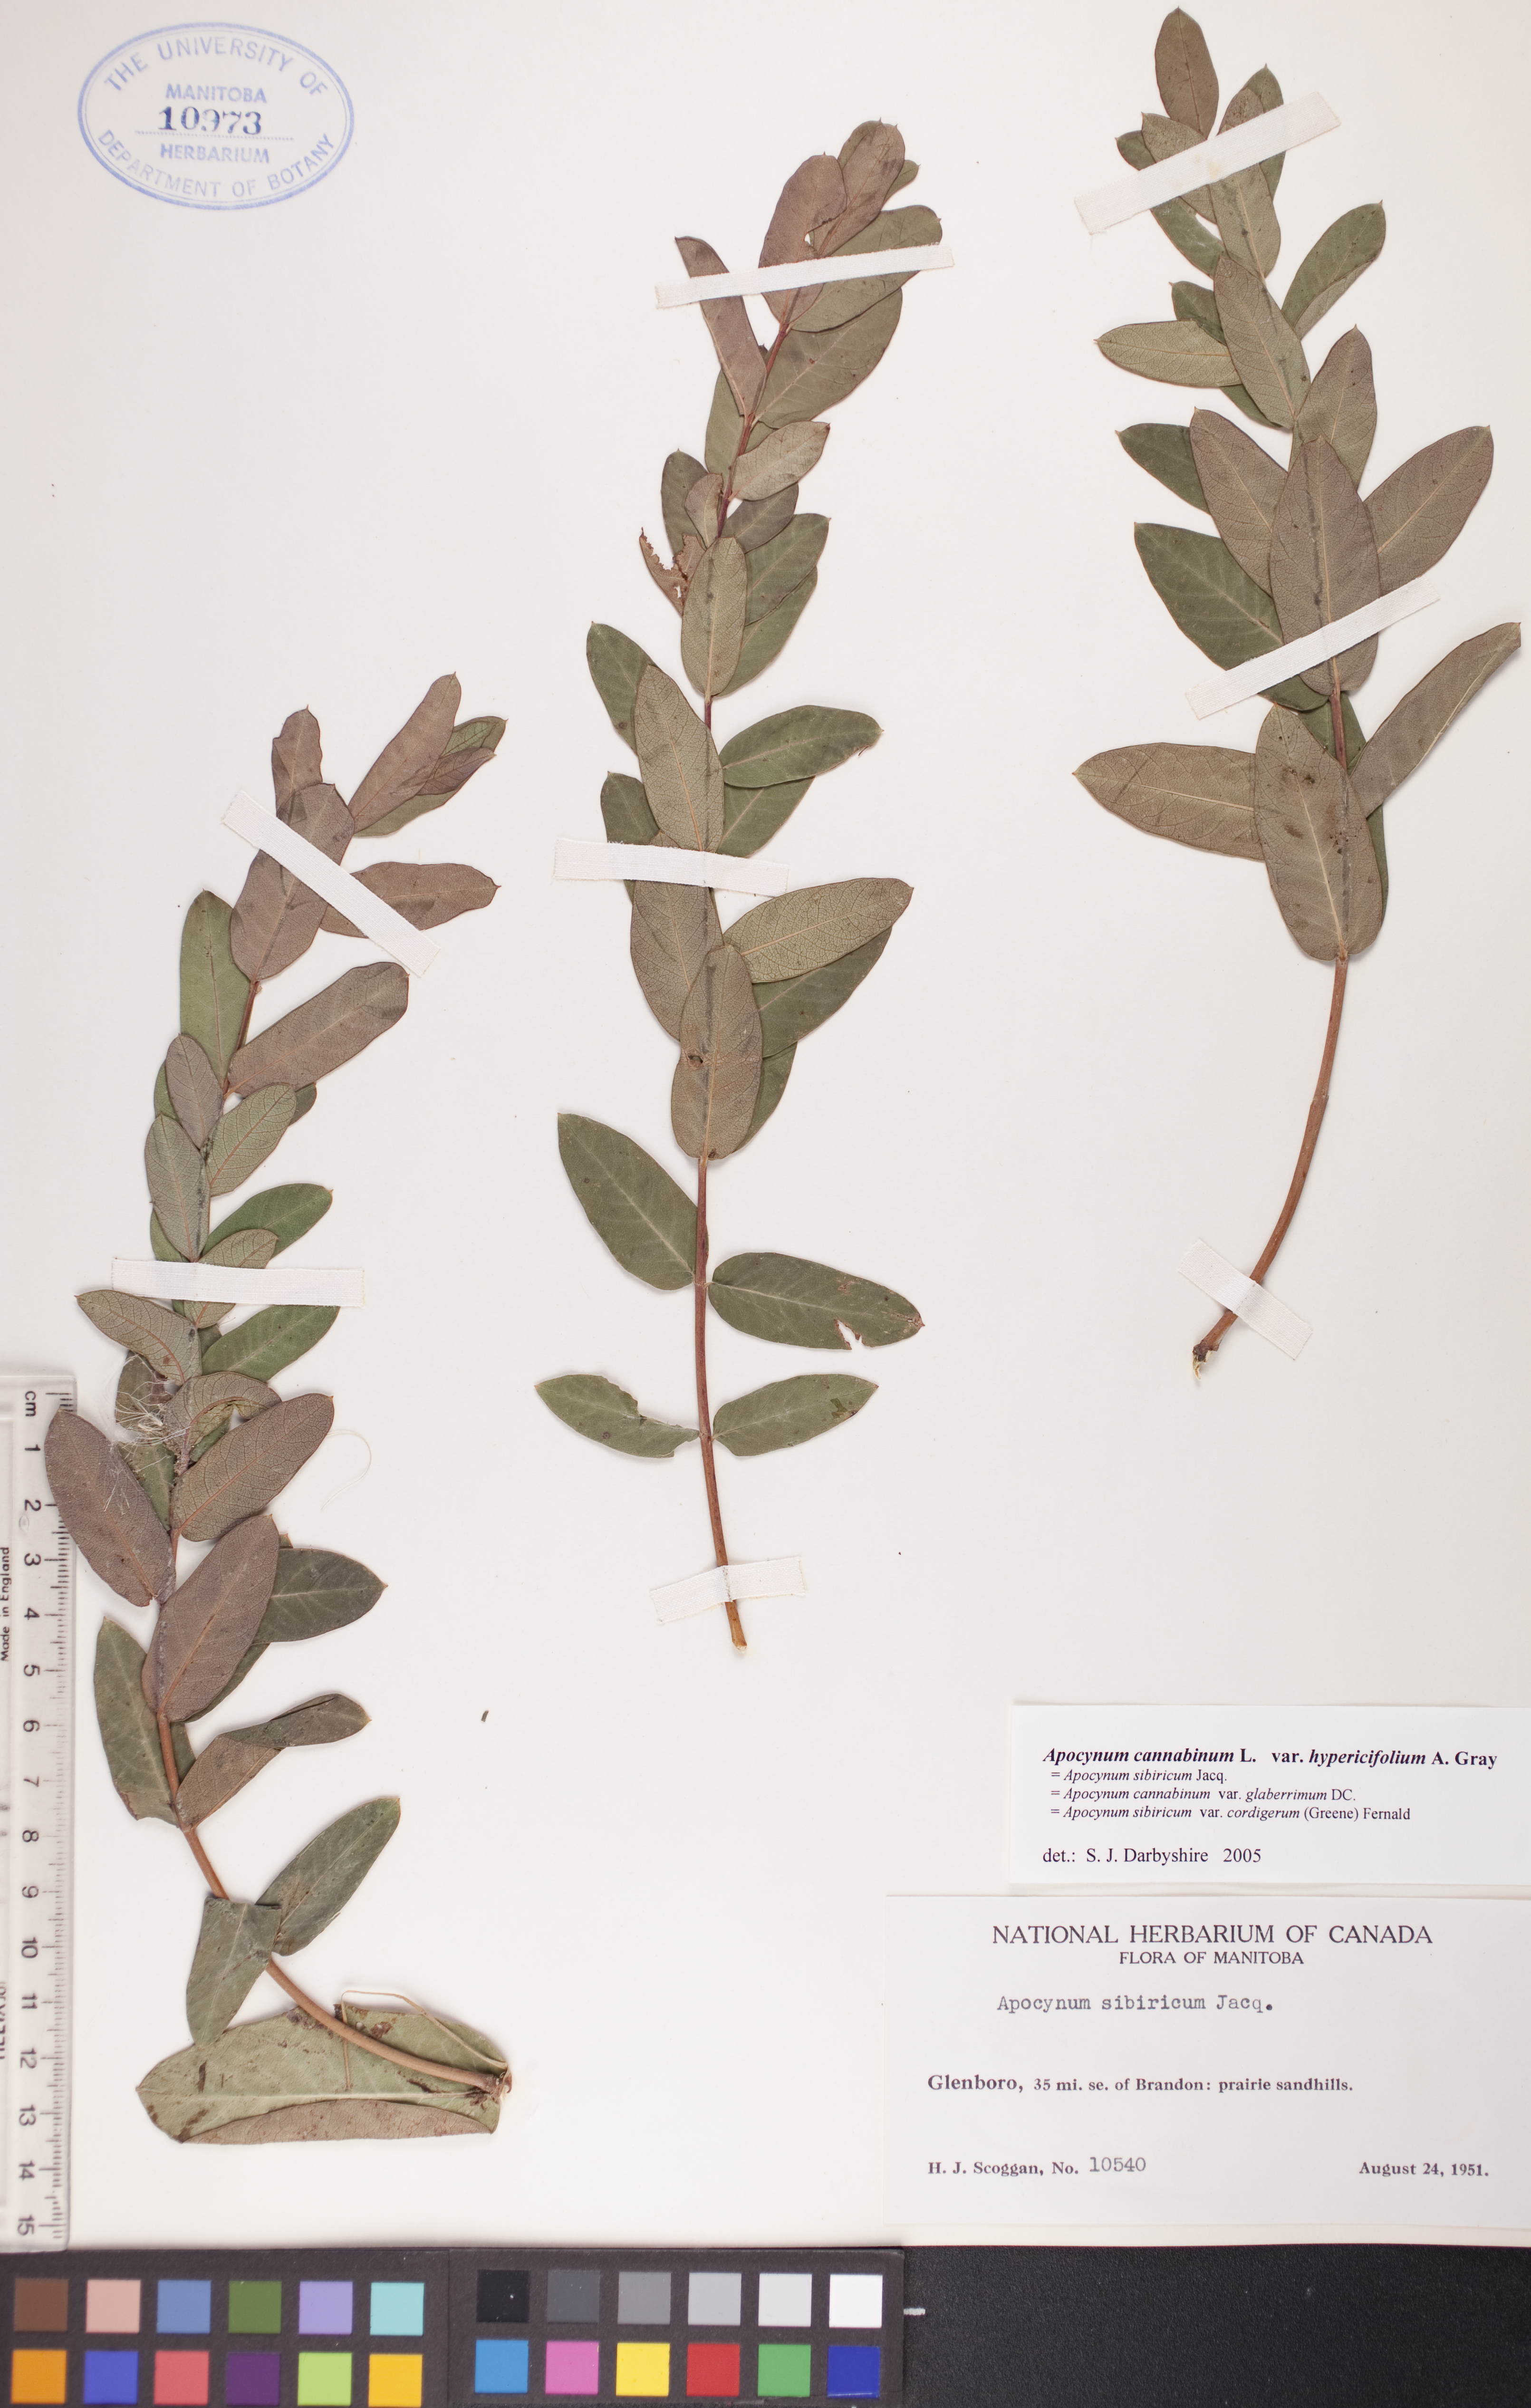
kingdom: Plantae
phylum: Tracheophyta
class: Magnoliopsida
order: Gentianales
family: Apocynaceae
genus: Apocynum
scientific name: Apocynum cannabinum
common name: Hemp dogbane
